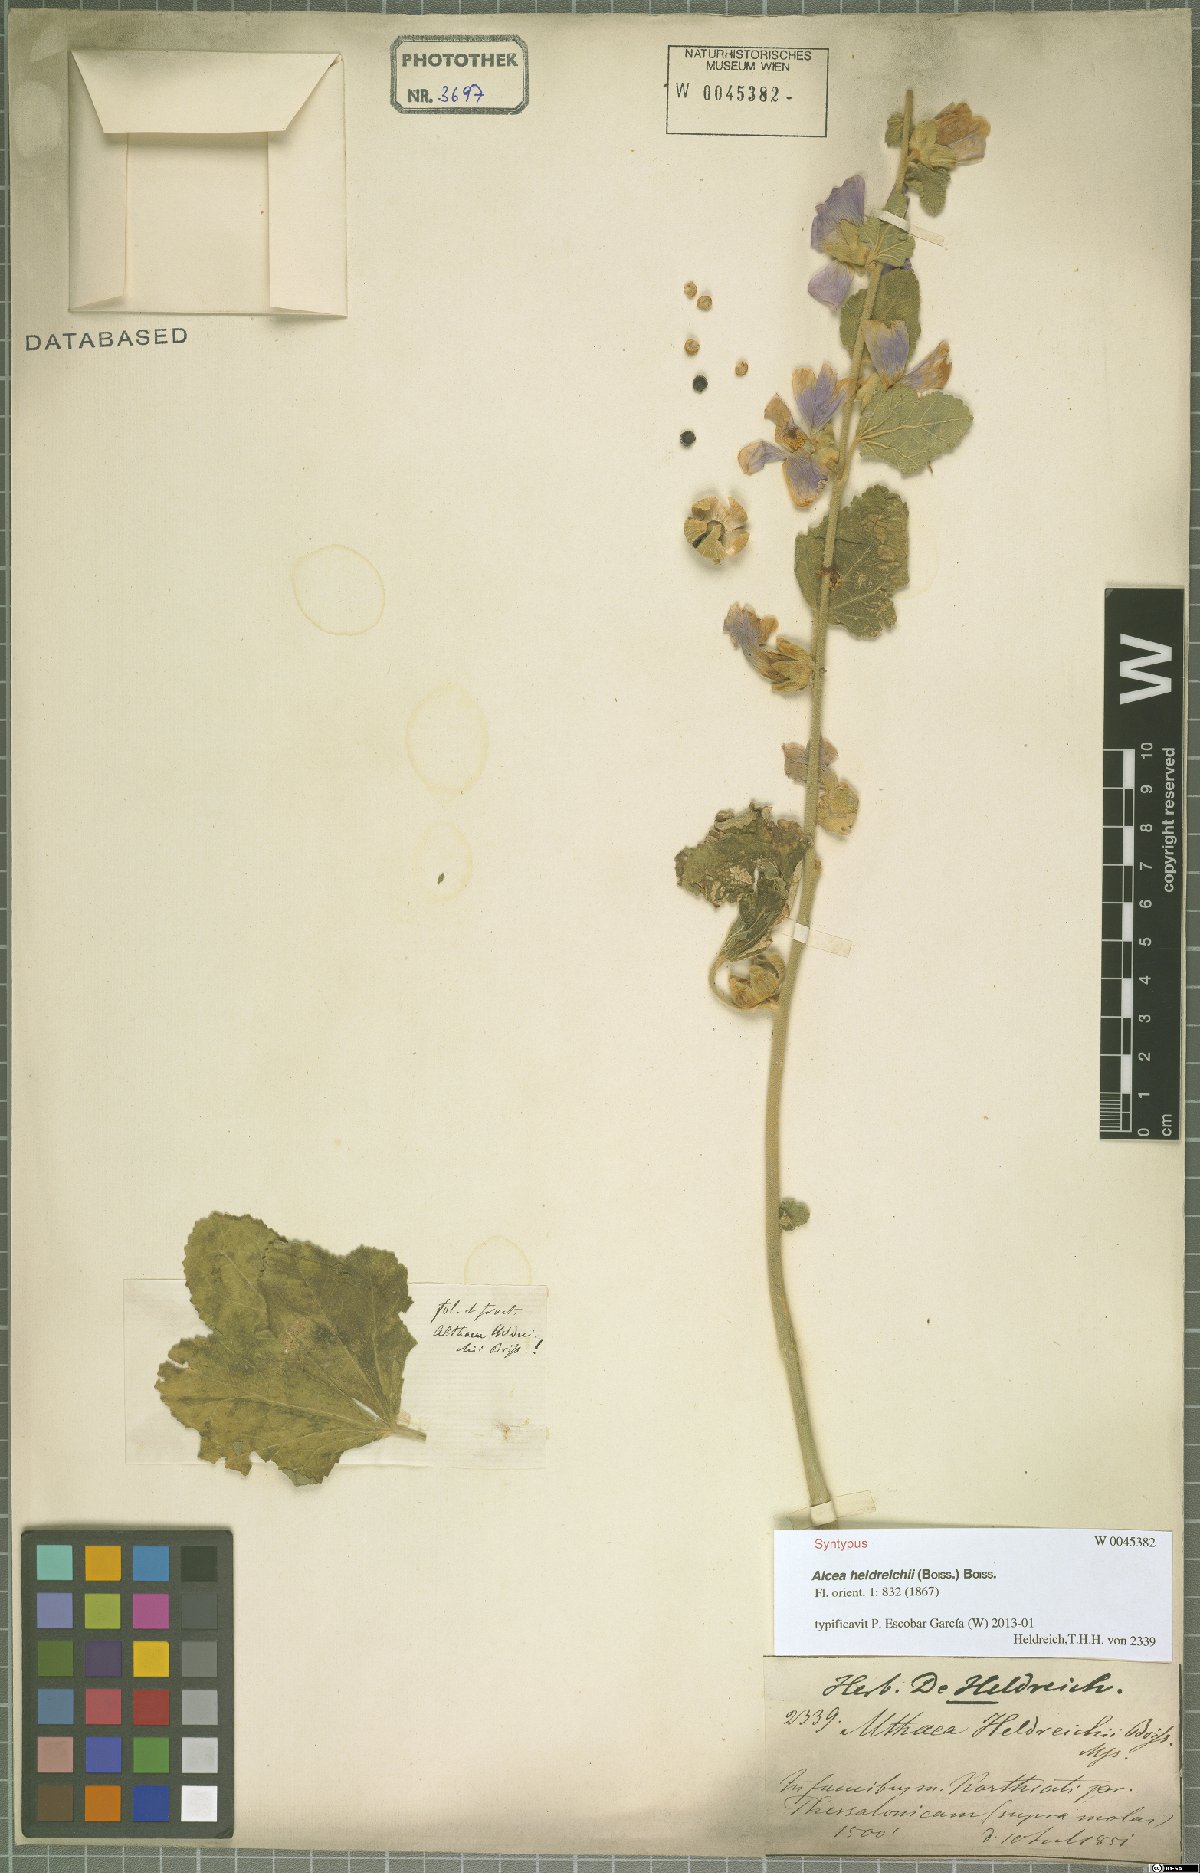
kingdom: Plantae
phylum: Tracheophyta
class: Magnoliopsida
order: Malvales
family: Malvaceae
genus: Alcea
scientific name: Alcea heldreichii
